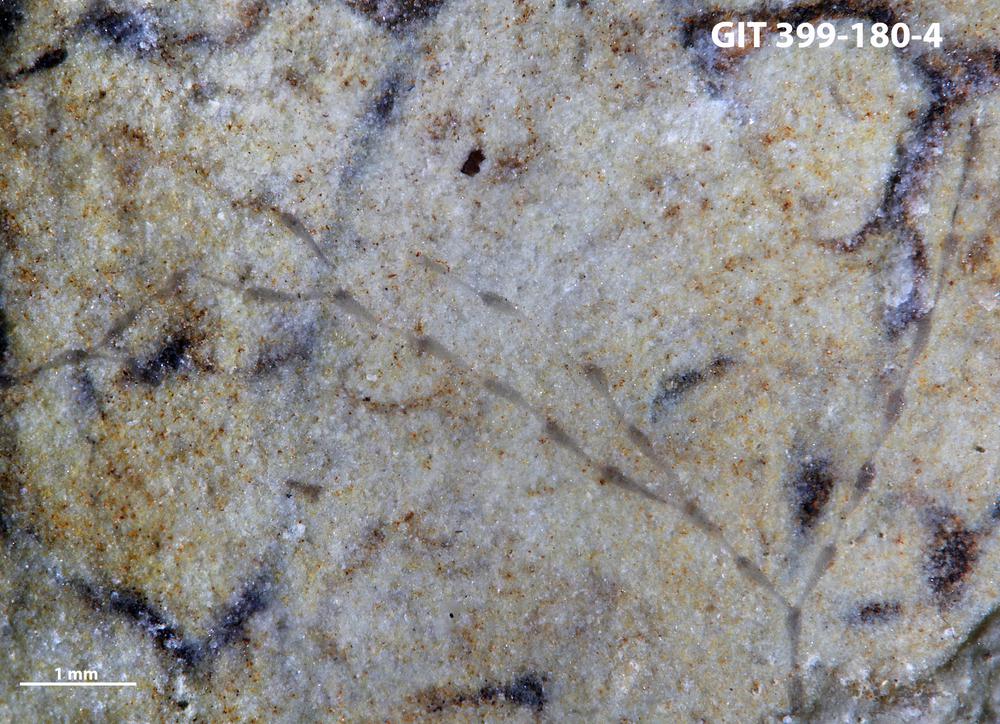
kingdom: Animalia
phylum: Bryozoa
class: Stenolaemata
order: Cyclostomatida
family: Corynotrypidae
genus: Corynotrypa
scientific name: Corynotrypa
